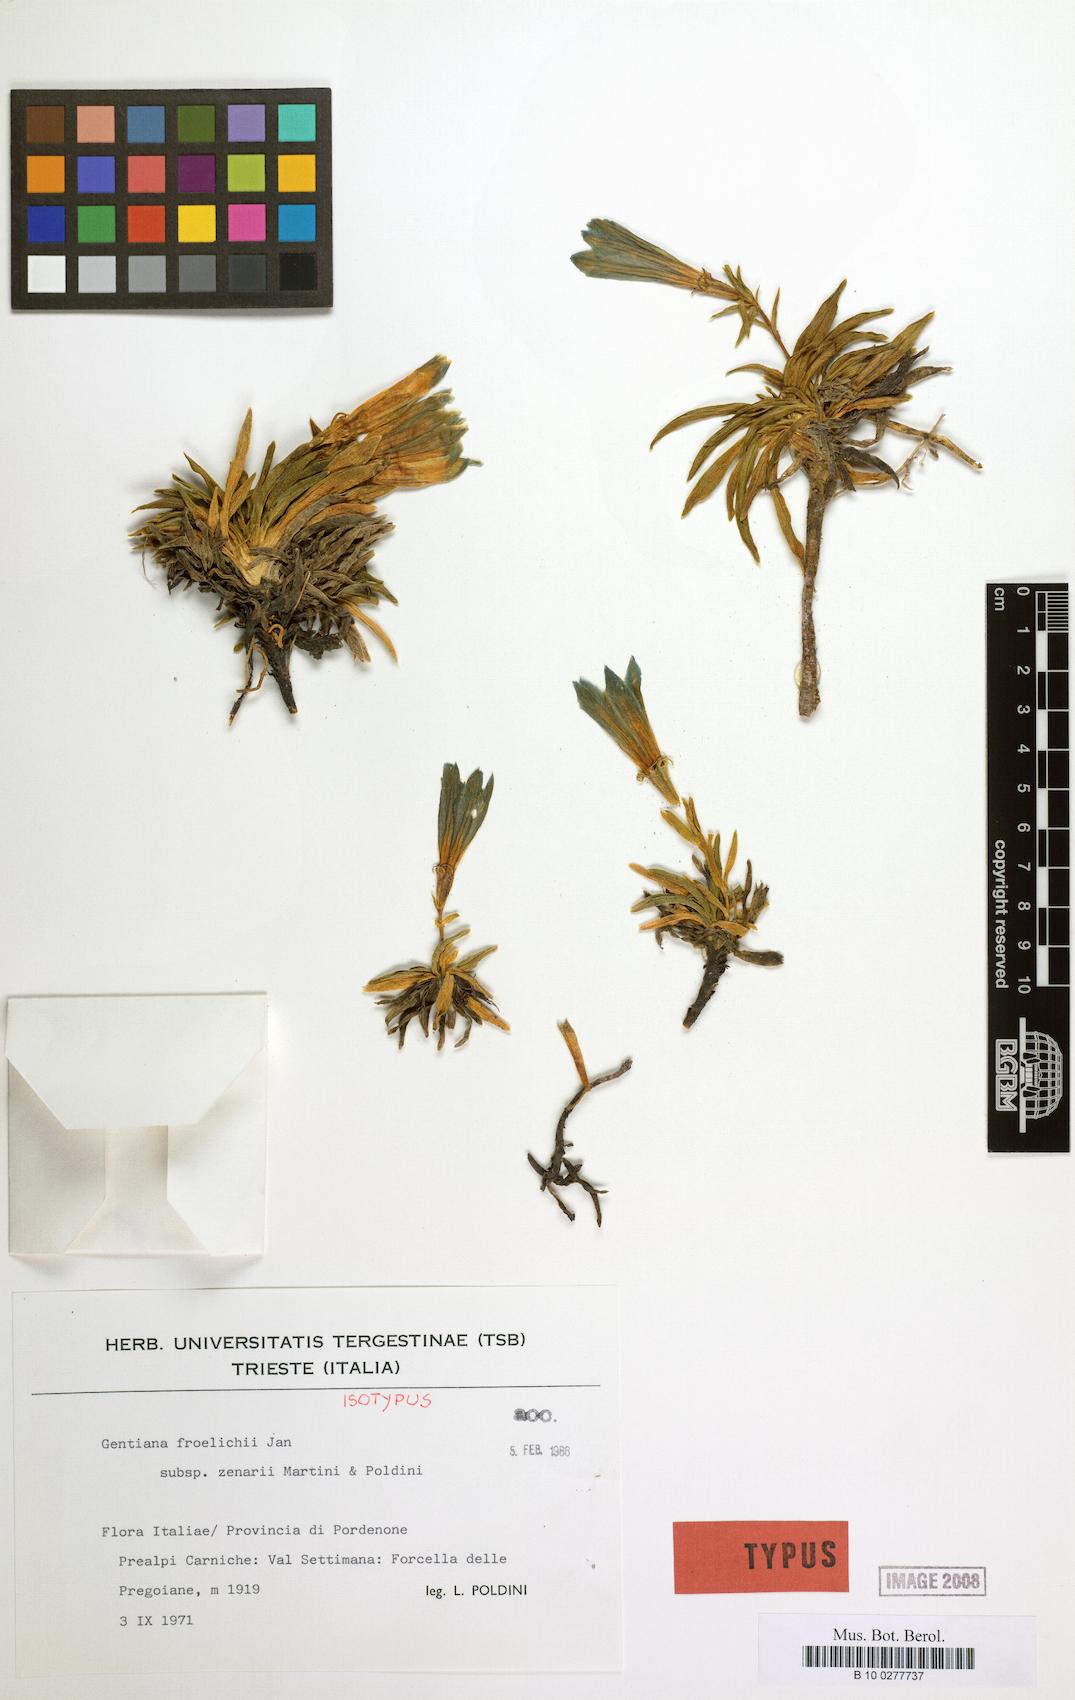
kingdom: Plantae
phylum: Tracheophyta
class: Magnoliopsida
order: Gentianales
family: Gentianaceae
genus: Gentiana
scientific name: Gentiana froelichii
